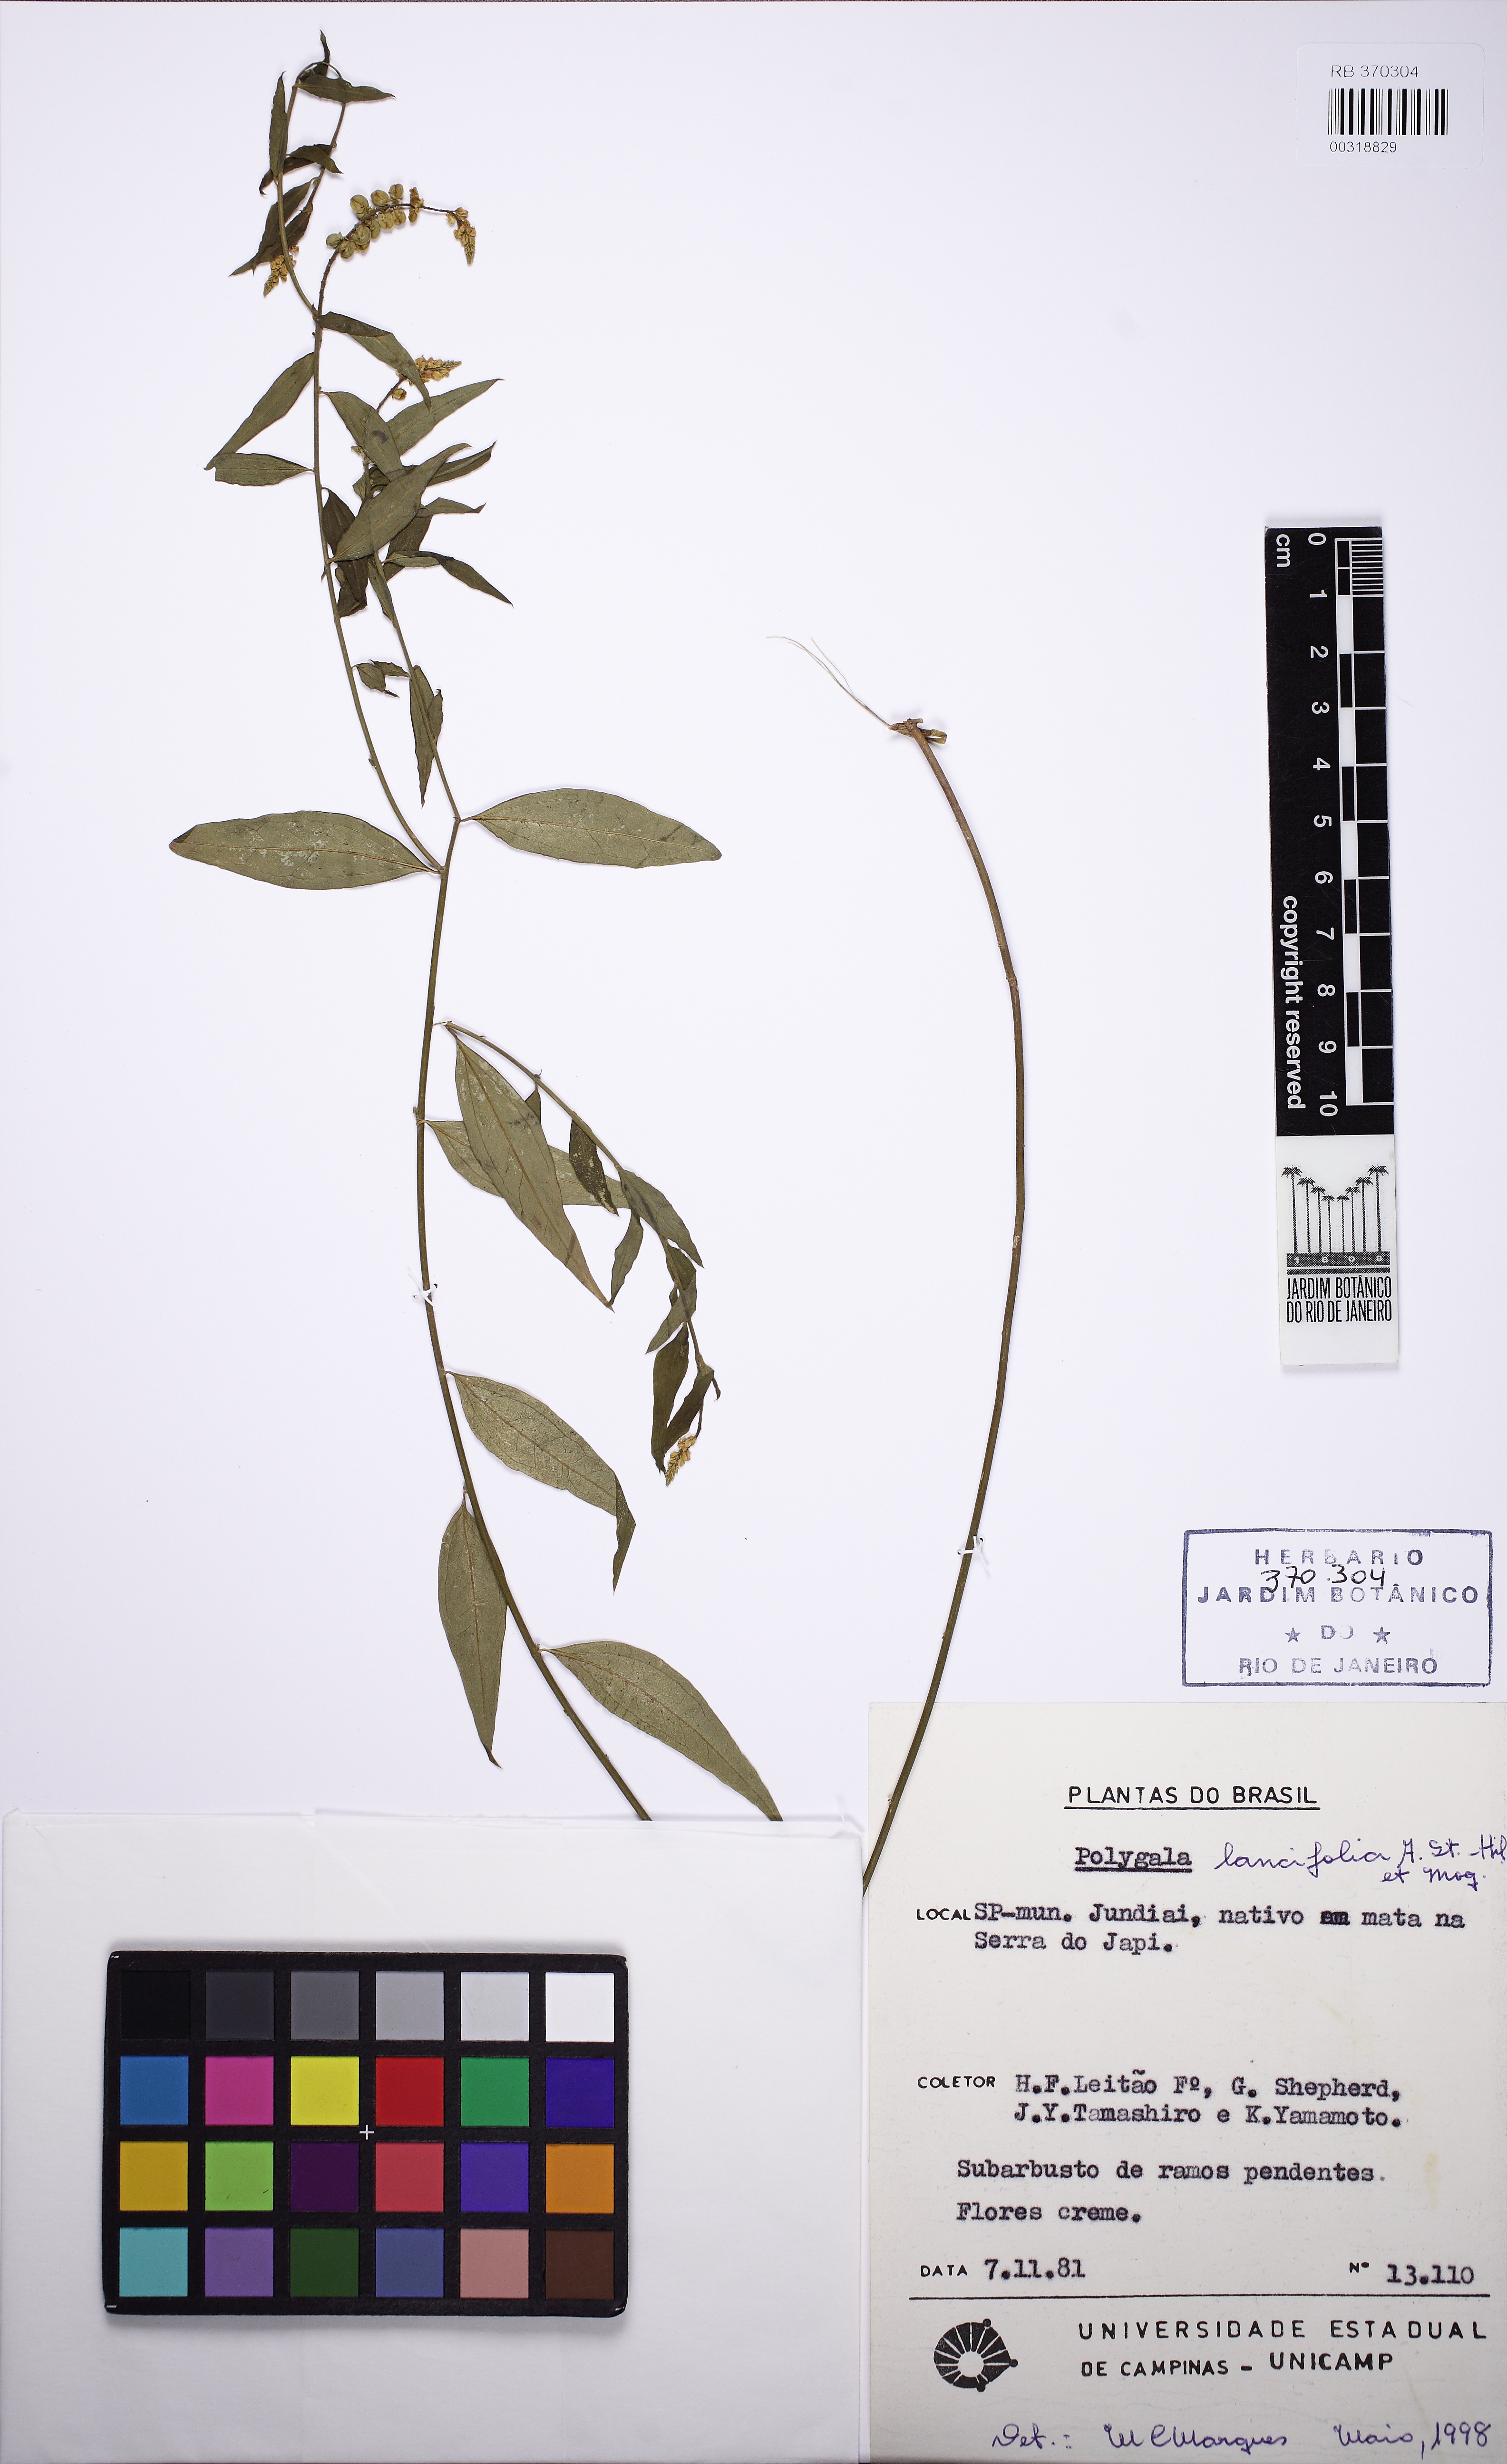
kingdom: Plantae
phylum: Tracheophyta
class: Magnoliopsida
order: Fabales
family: Polygalaceae
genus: Polygala
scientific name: Polygala lancifolia
